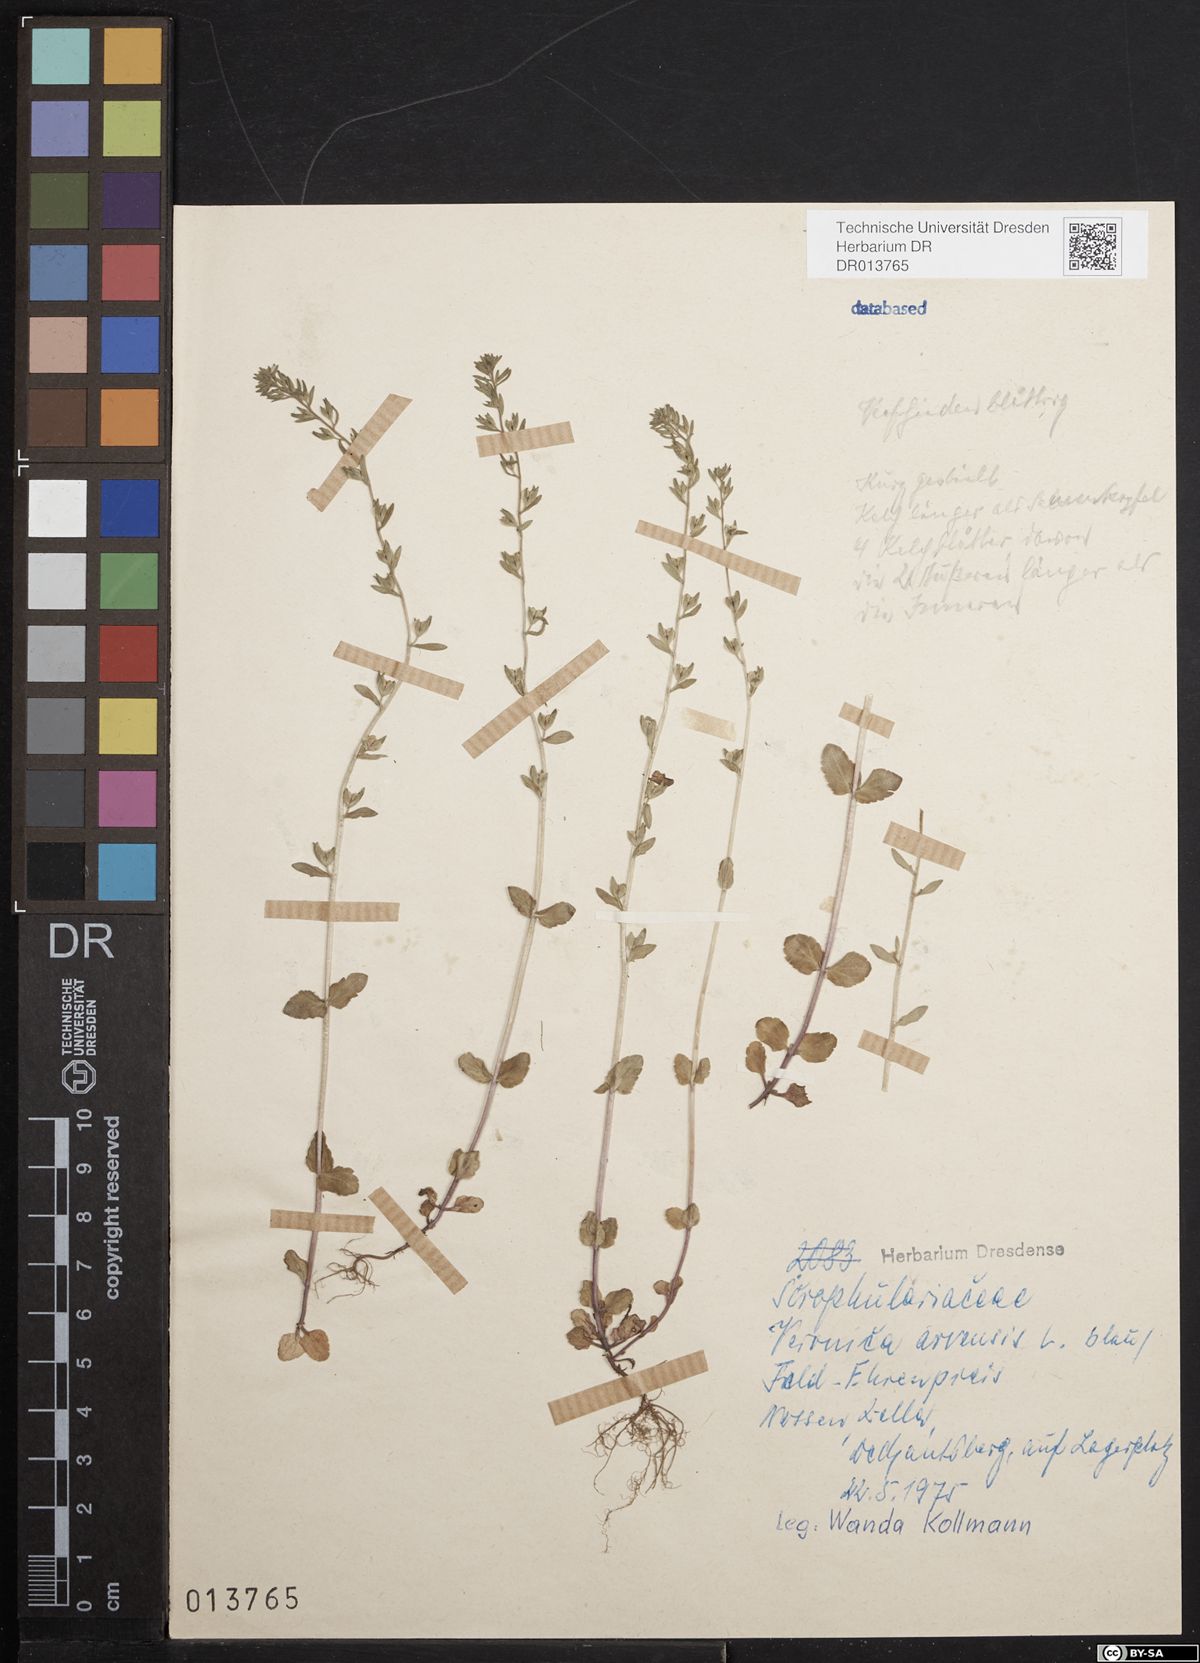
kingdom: Plantae
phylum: Tracheophyta
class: Magnoliopsida
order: Lamiales
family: Plantaginaceae
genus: Veronica
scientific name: Veronica arvensis
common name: Corn speedwell
